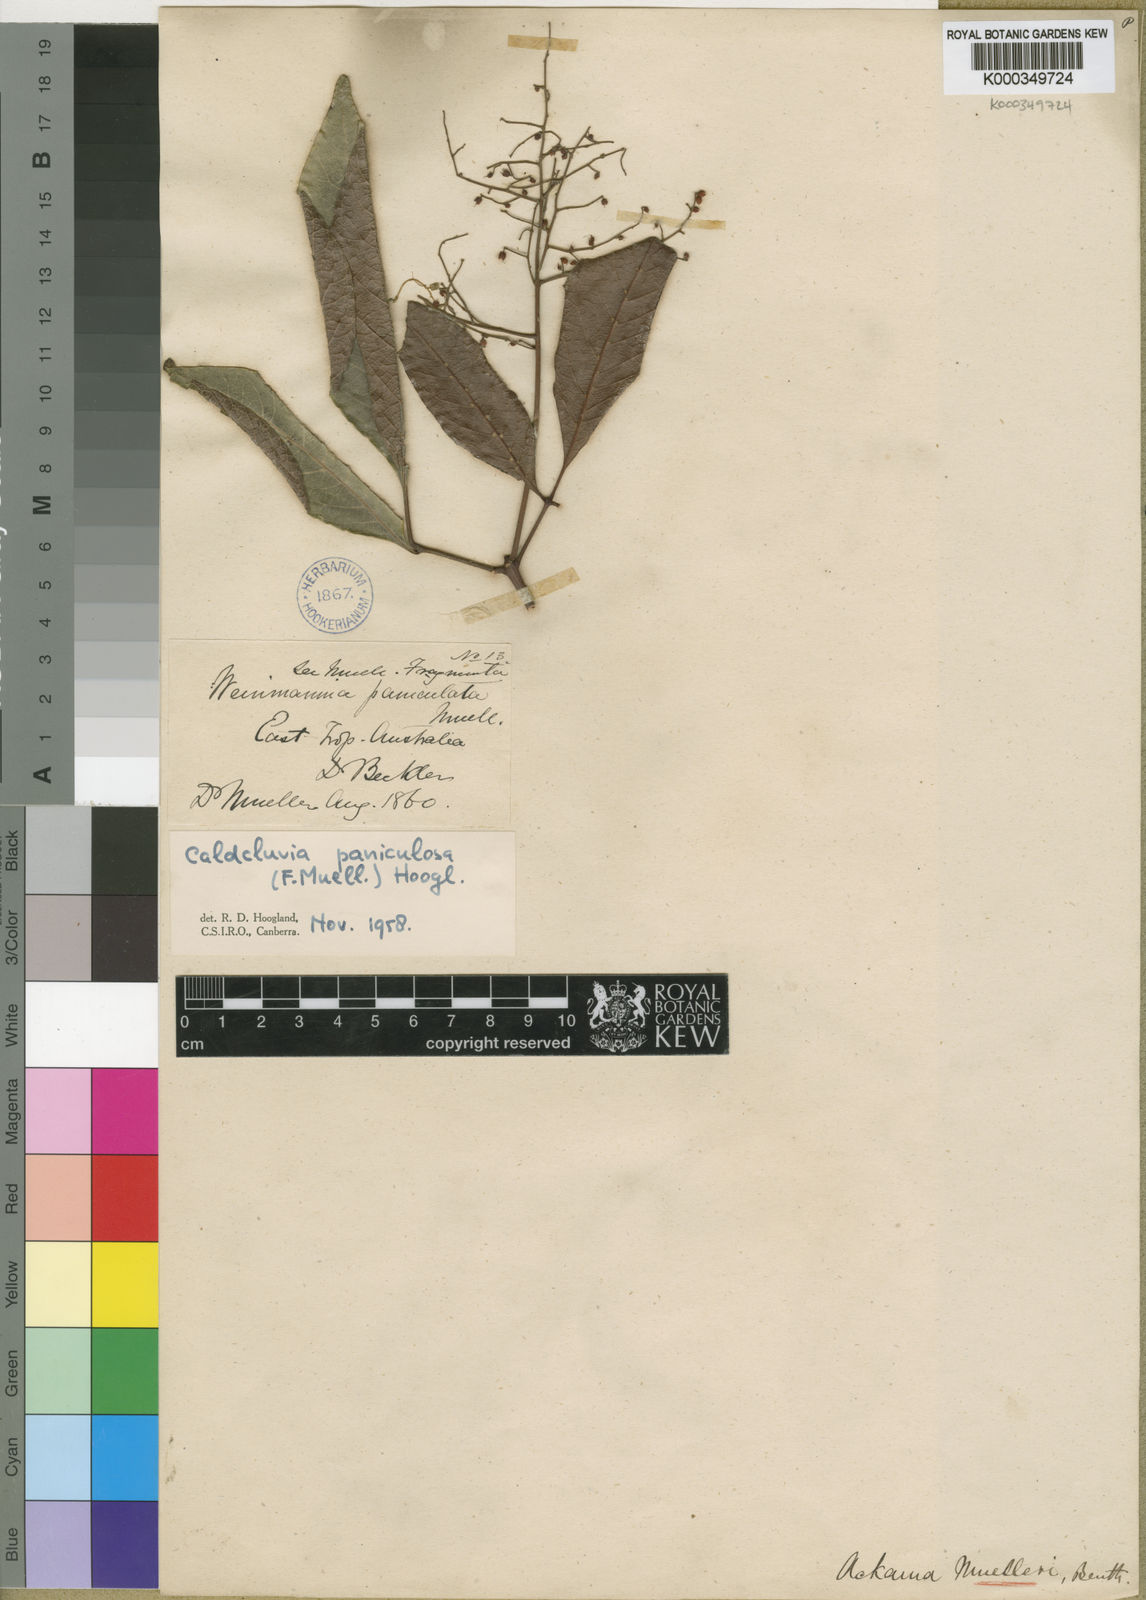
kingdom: Plantae
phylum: Tracheophyta
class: Magnoliopsida
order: Oxalidales
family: Cunoniaceae
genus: Ackama
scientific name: Ackama paniculosa
